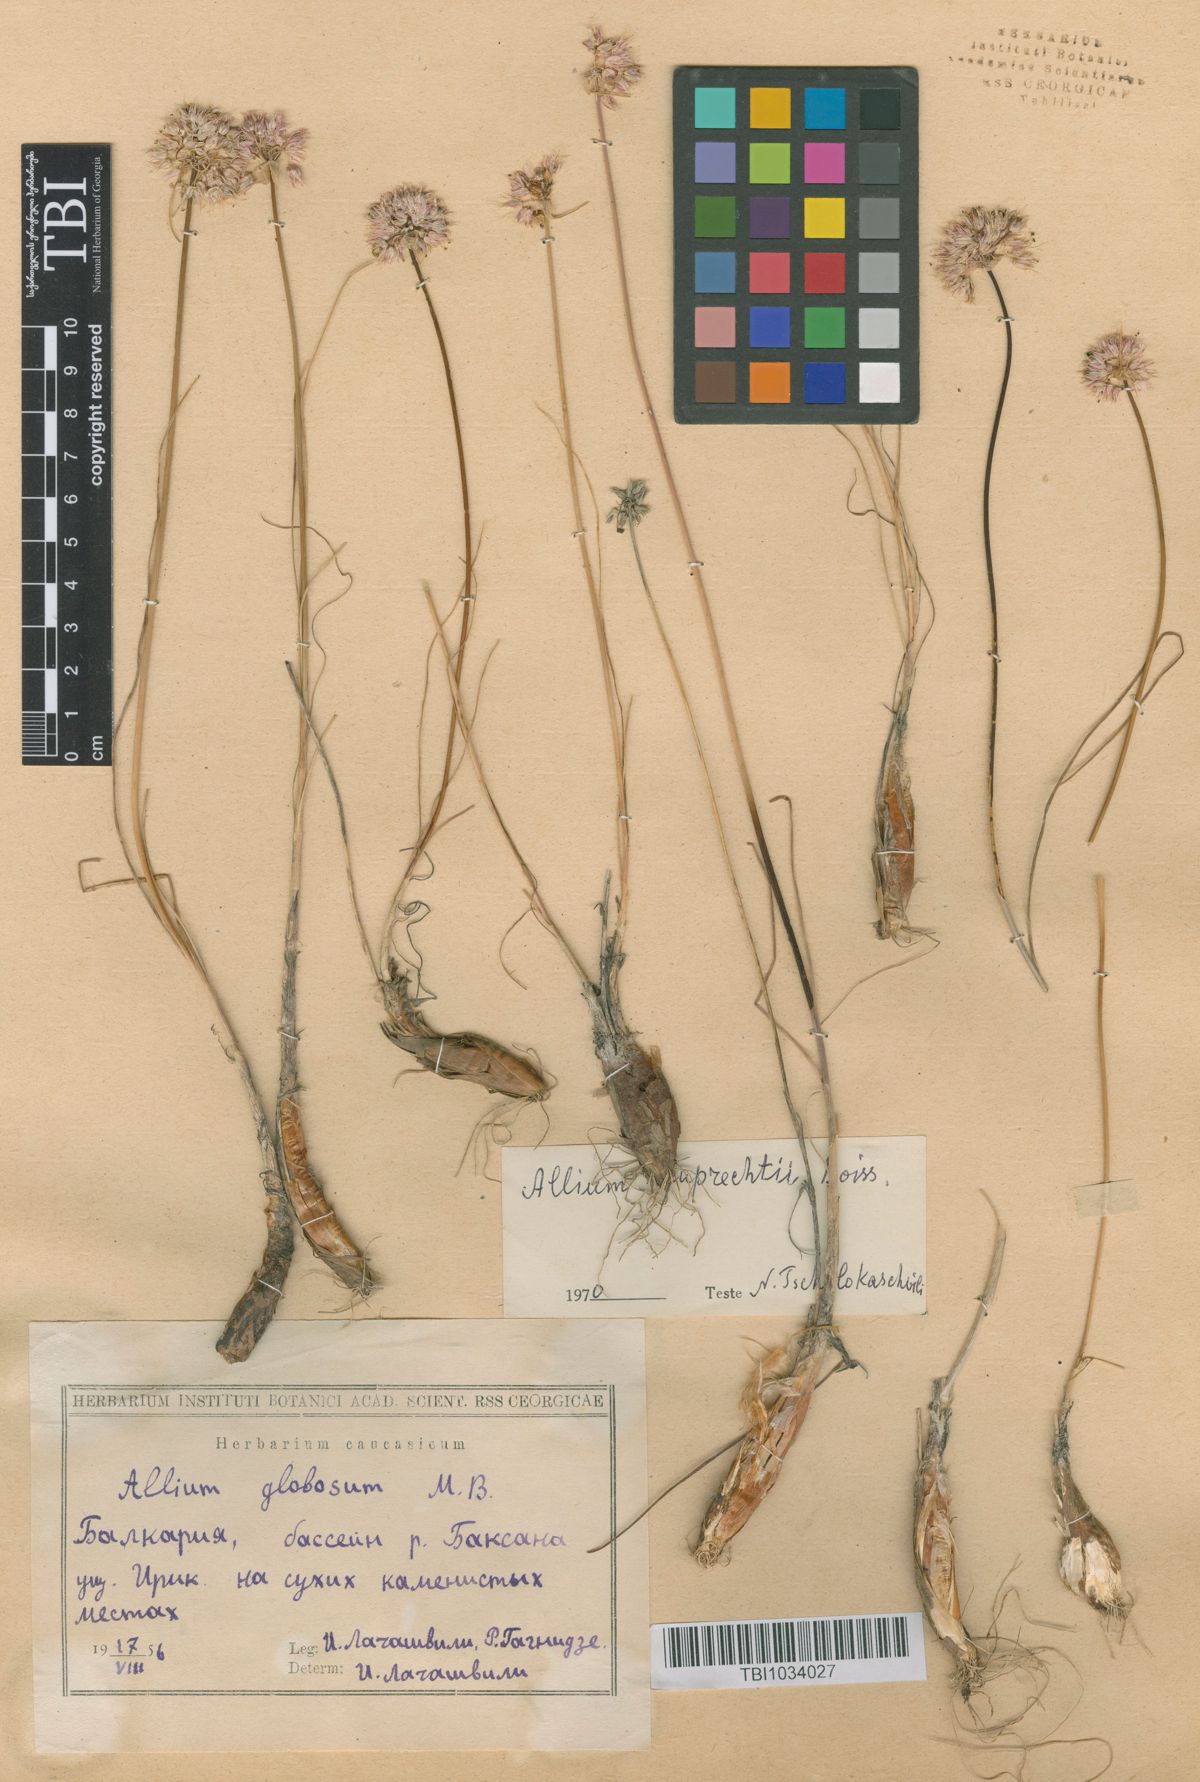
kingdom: Plantae
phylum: Tracheophyta
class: Liliopsida
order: Asparagales
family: Amaryllidaceae
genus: Allium
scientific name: Allium saxatile
